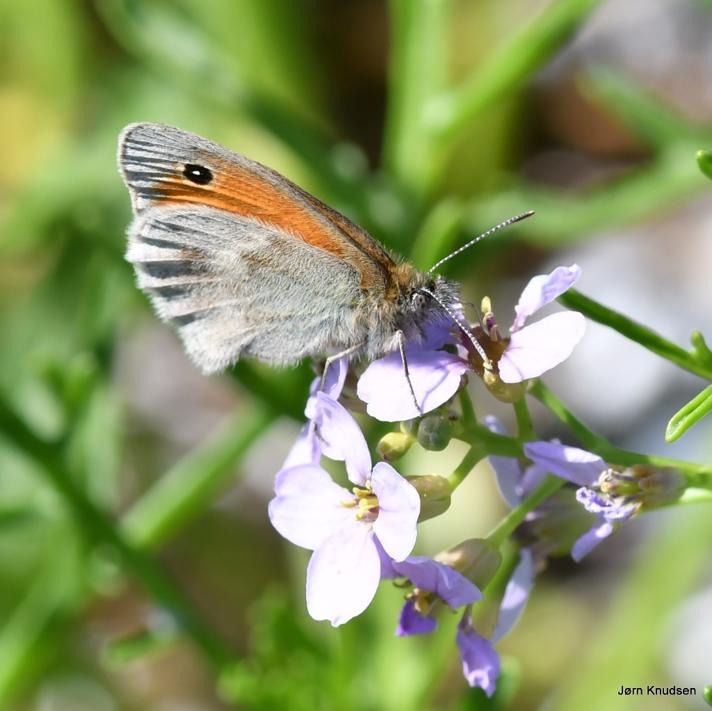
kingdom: Animalia
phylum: Arthropoda
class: Insecta
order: Lepidoptera
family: Nymphalidae
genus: Coenonympha
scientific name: Coenonympha pamphilus
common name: Okkergul randøje
